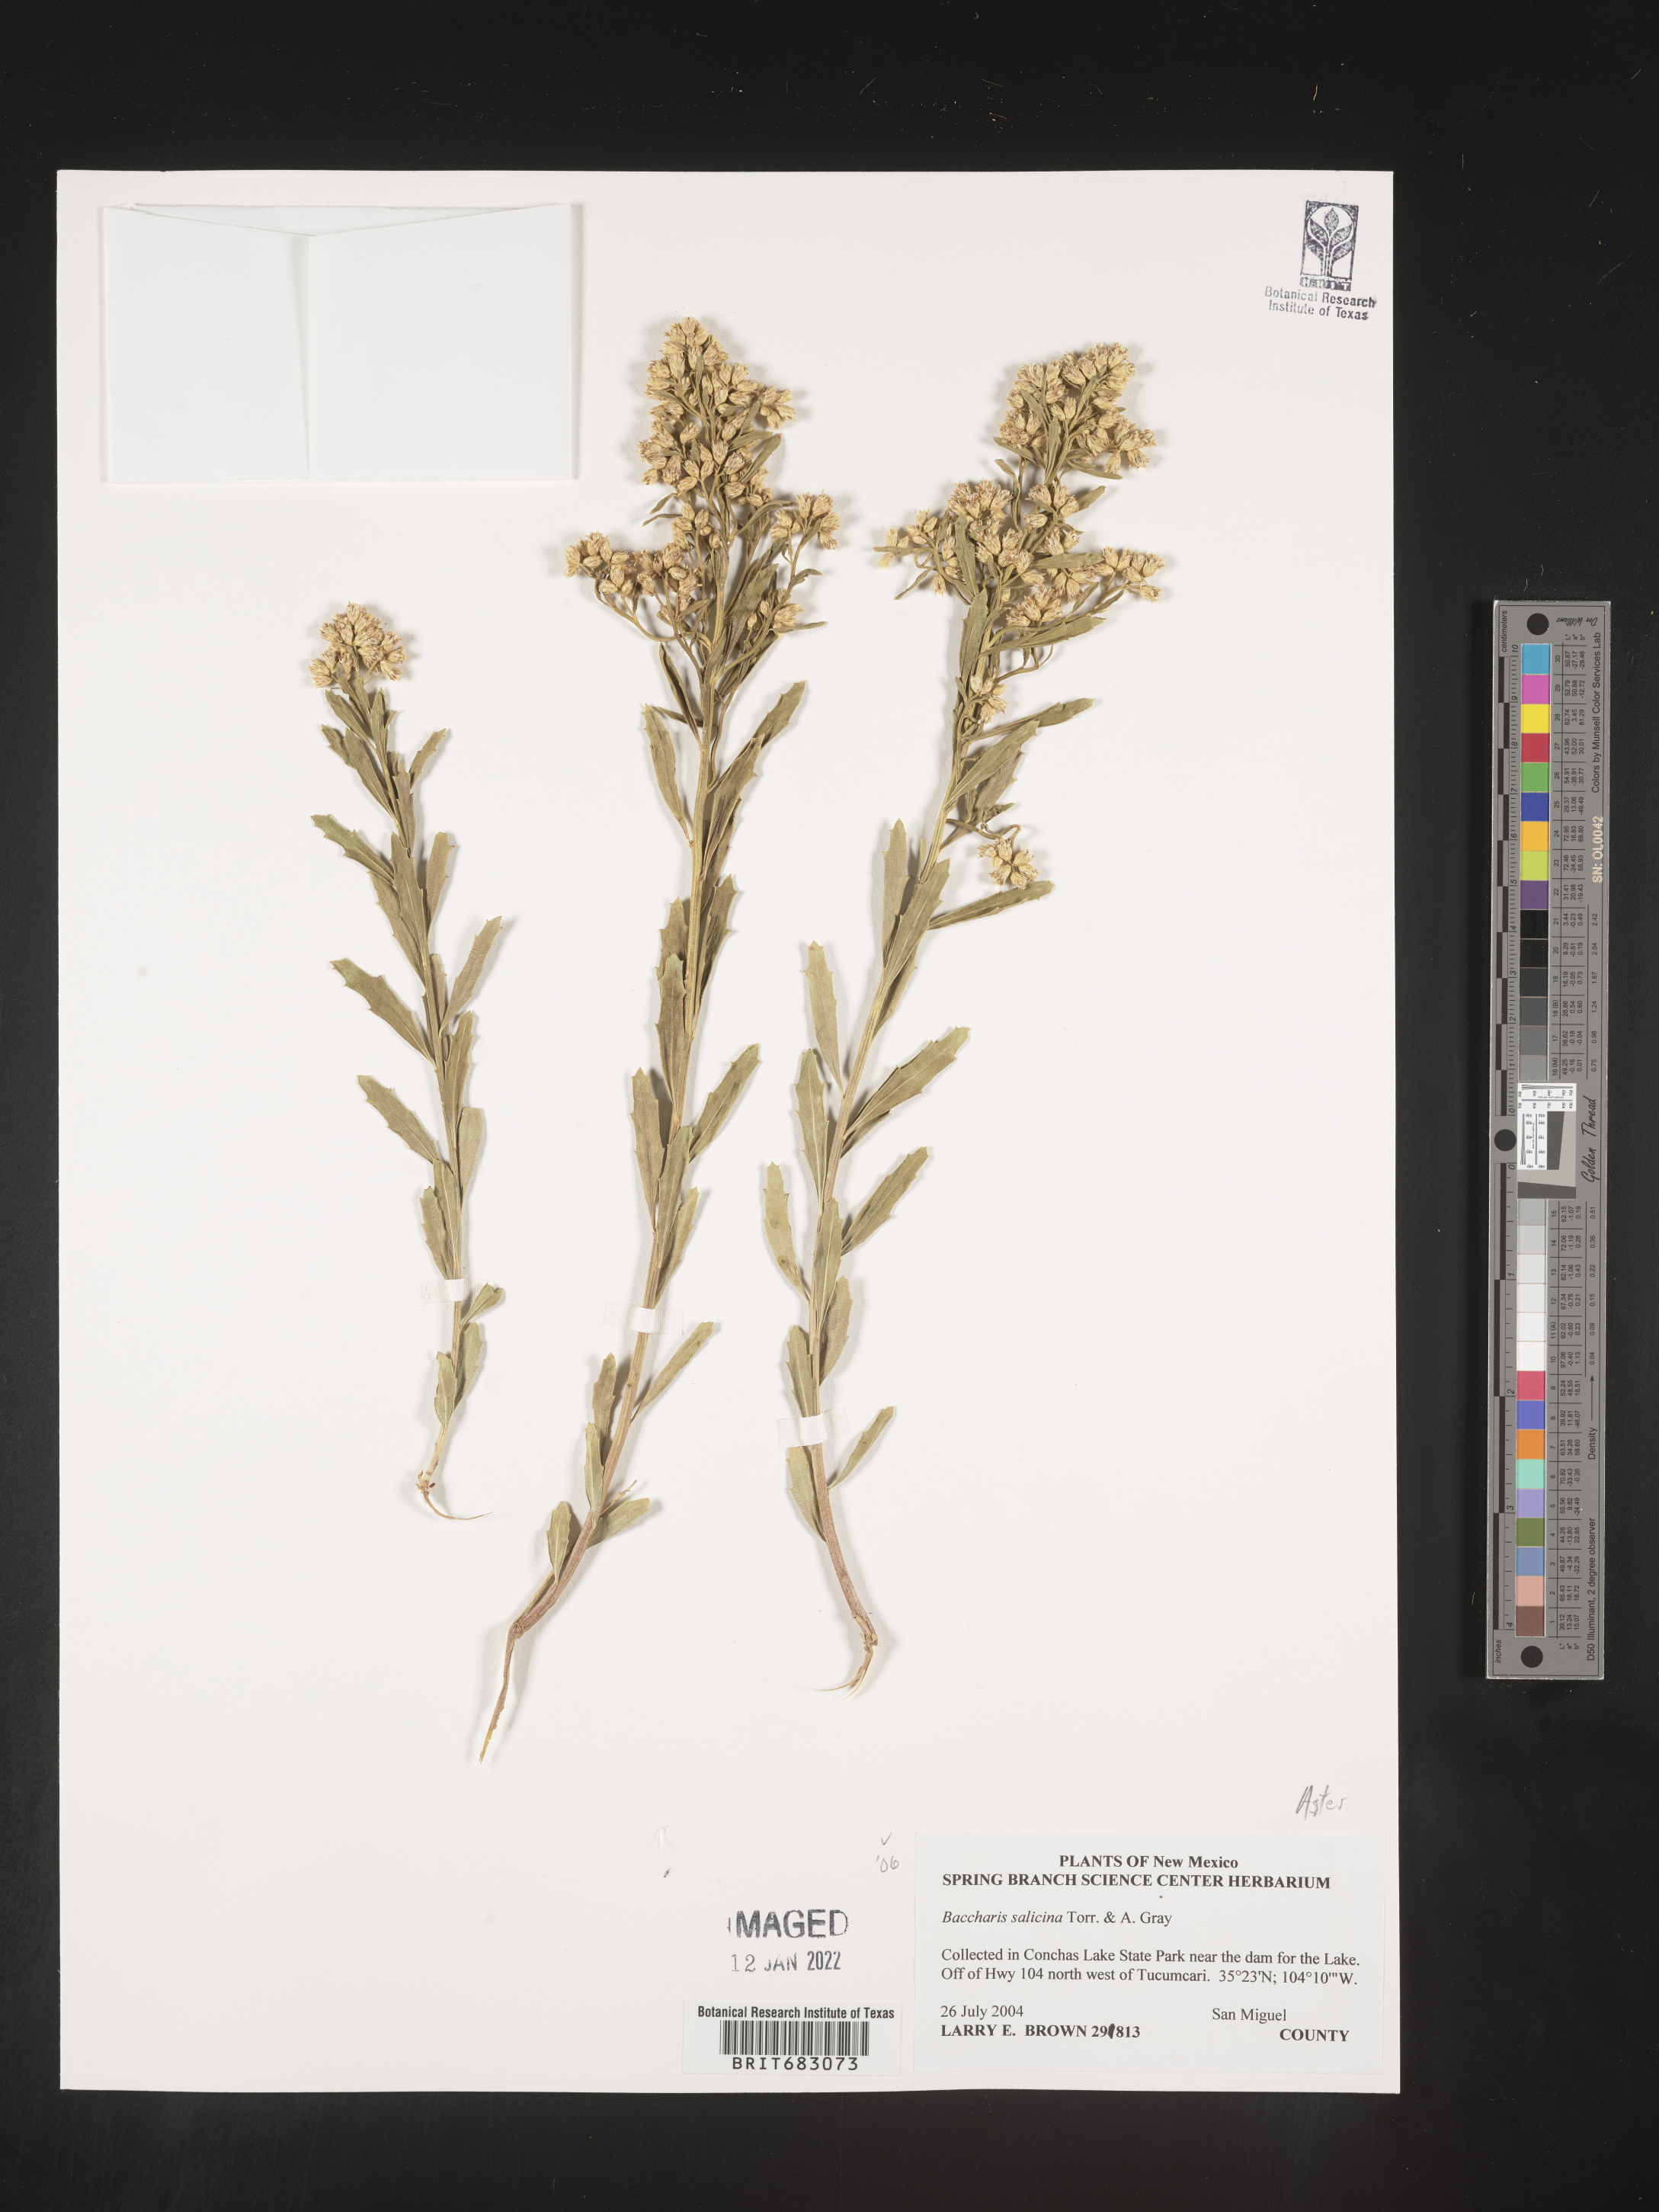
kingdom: Plantae
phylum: Tracheophyta
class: Magnoliopsida
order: Asterales
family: Asteraceae
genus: Baccharis
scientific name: Baccharis salicina
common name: Willow baccharis
